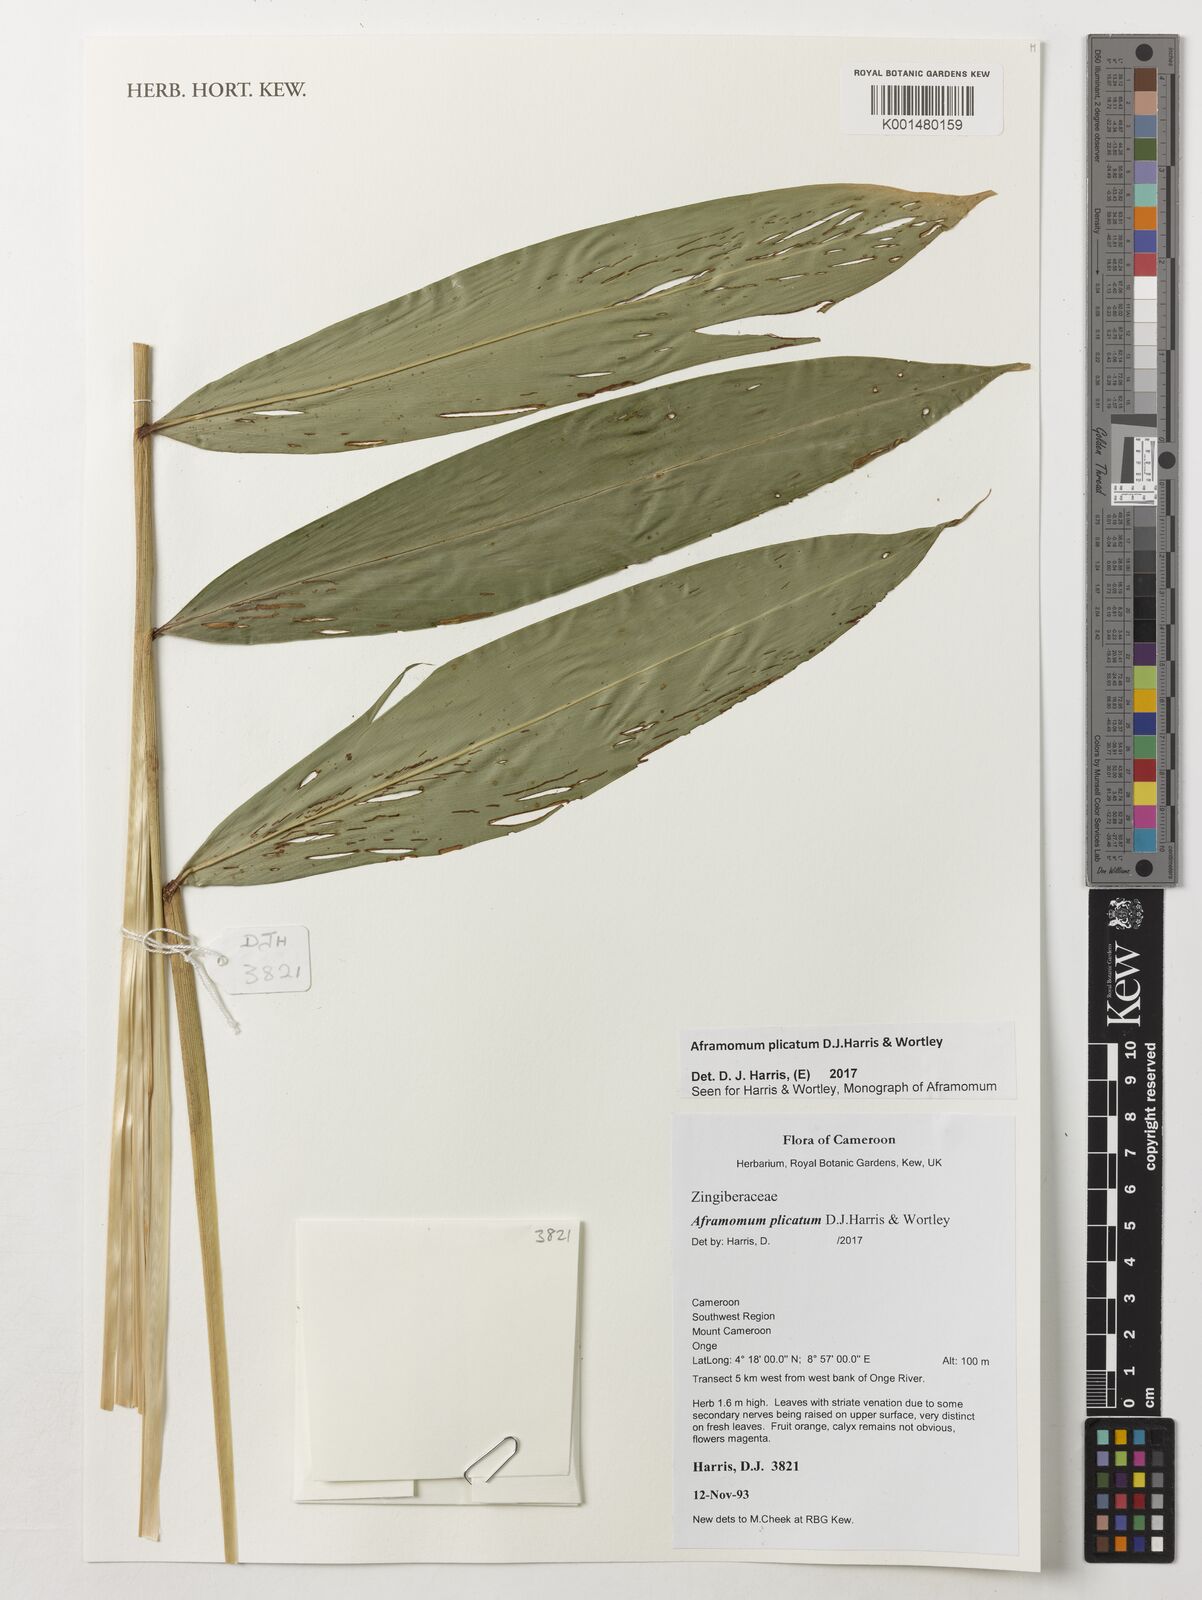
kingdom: Plantae
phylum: Tracheophyta
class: Liliopsida
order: Zingiberales
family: Zingiberaceae
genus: Aframomum
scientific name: Aframomum plicatum
